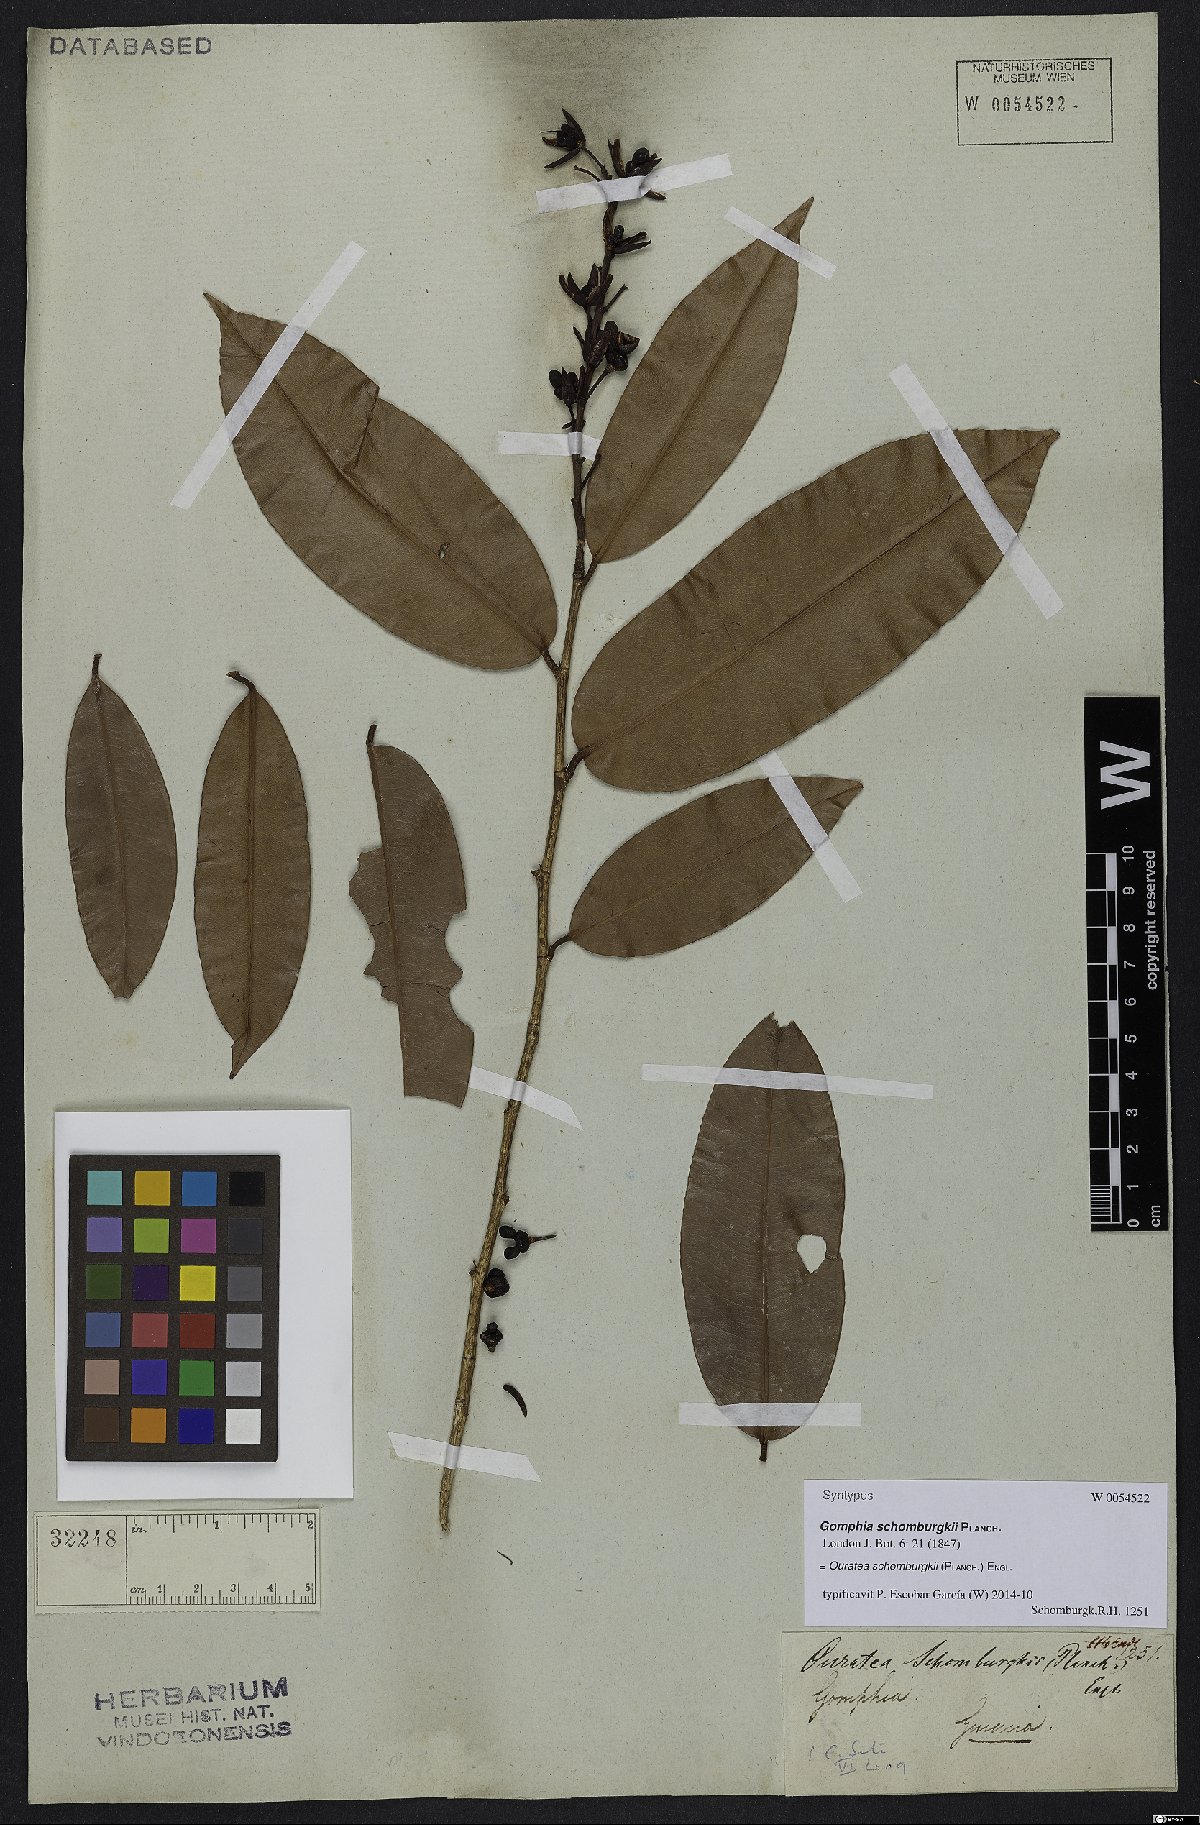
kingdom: Plantae
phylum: Tracheophyta
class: Magnoliopsida
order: Malpighiales
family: Ochnaceae
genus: Ouratea
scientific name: Ouratea schomburgkii
